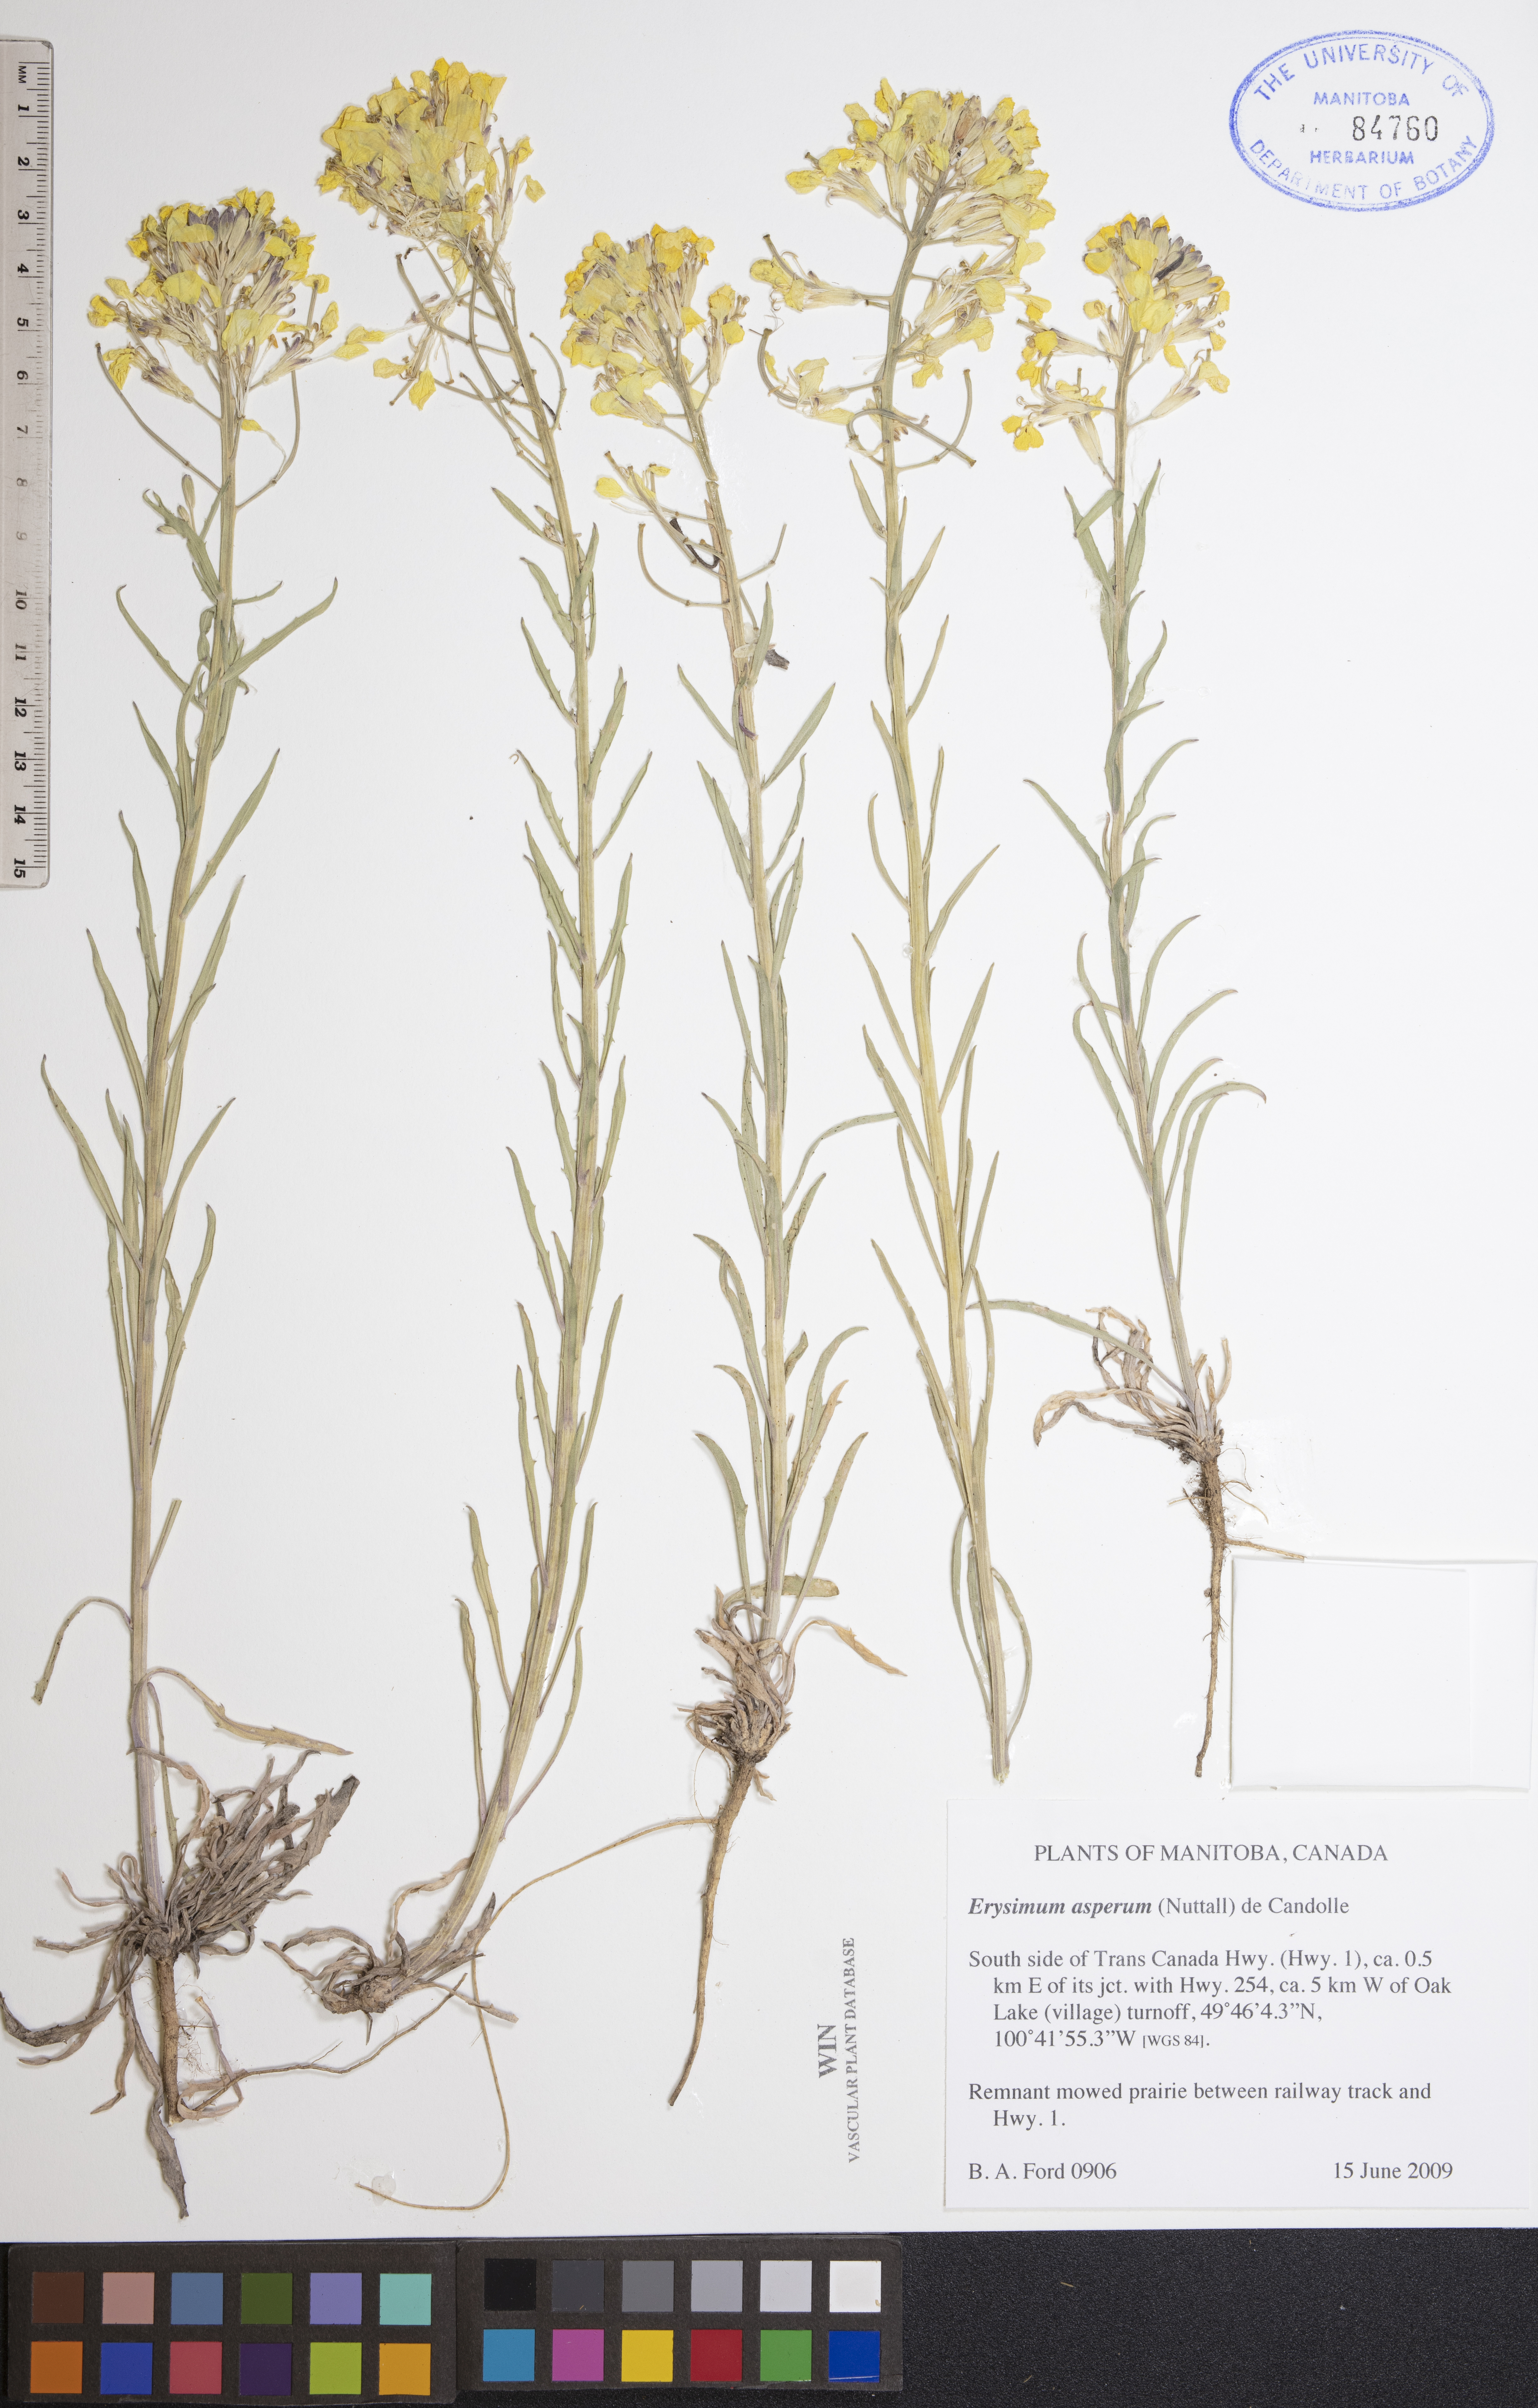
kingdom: Plantae
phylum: Tracheophyta
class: Magnoliopsida
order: Brassicales
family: Brassicaceae
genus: Erysimum
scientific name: Erysimum asperum
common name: Western wallflower
